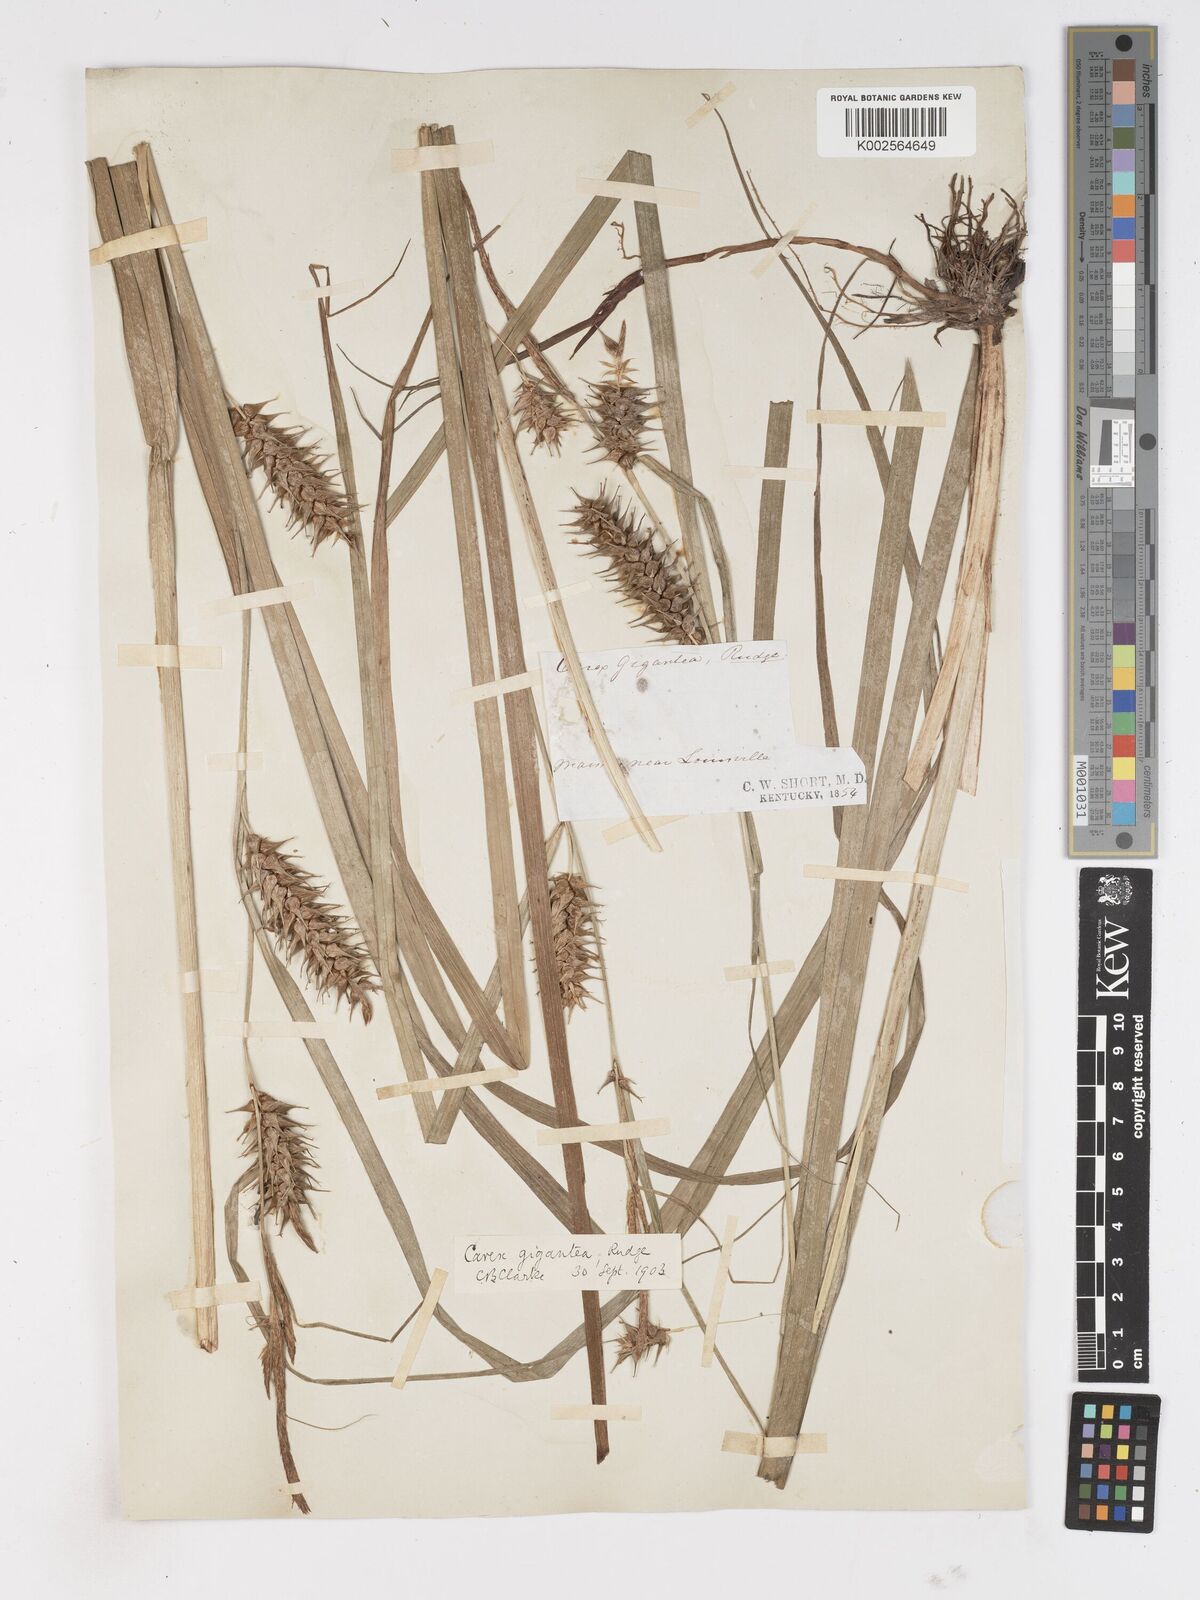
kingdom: Plantae
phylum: Tracheophyta
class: Liliopsida
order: Poales
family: Cyperaceae
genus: Carex
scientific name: Carex gigantea
